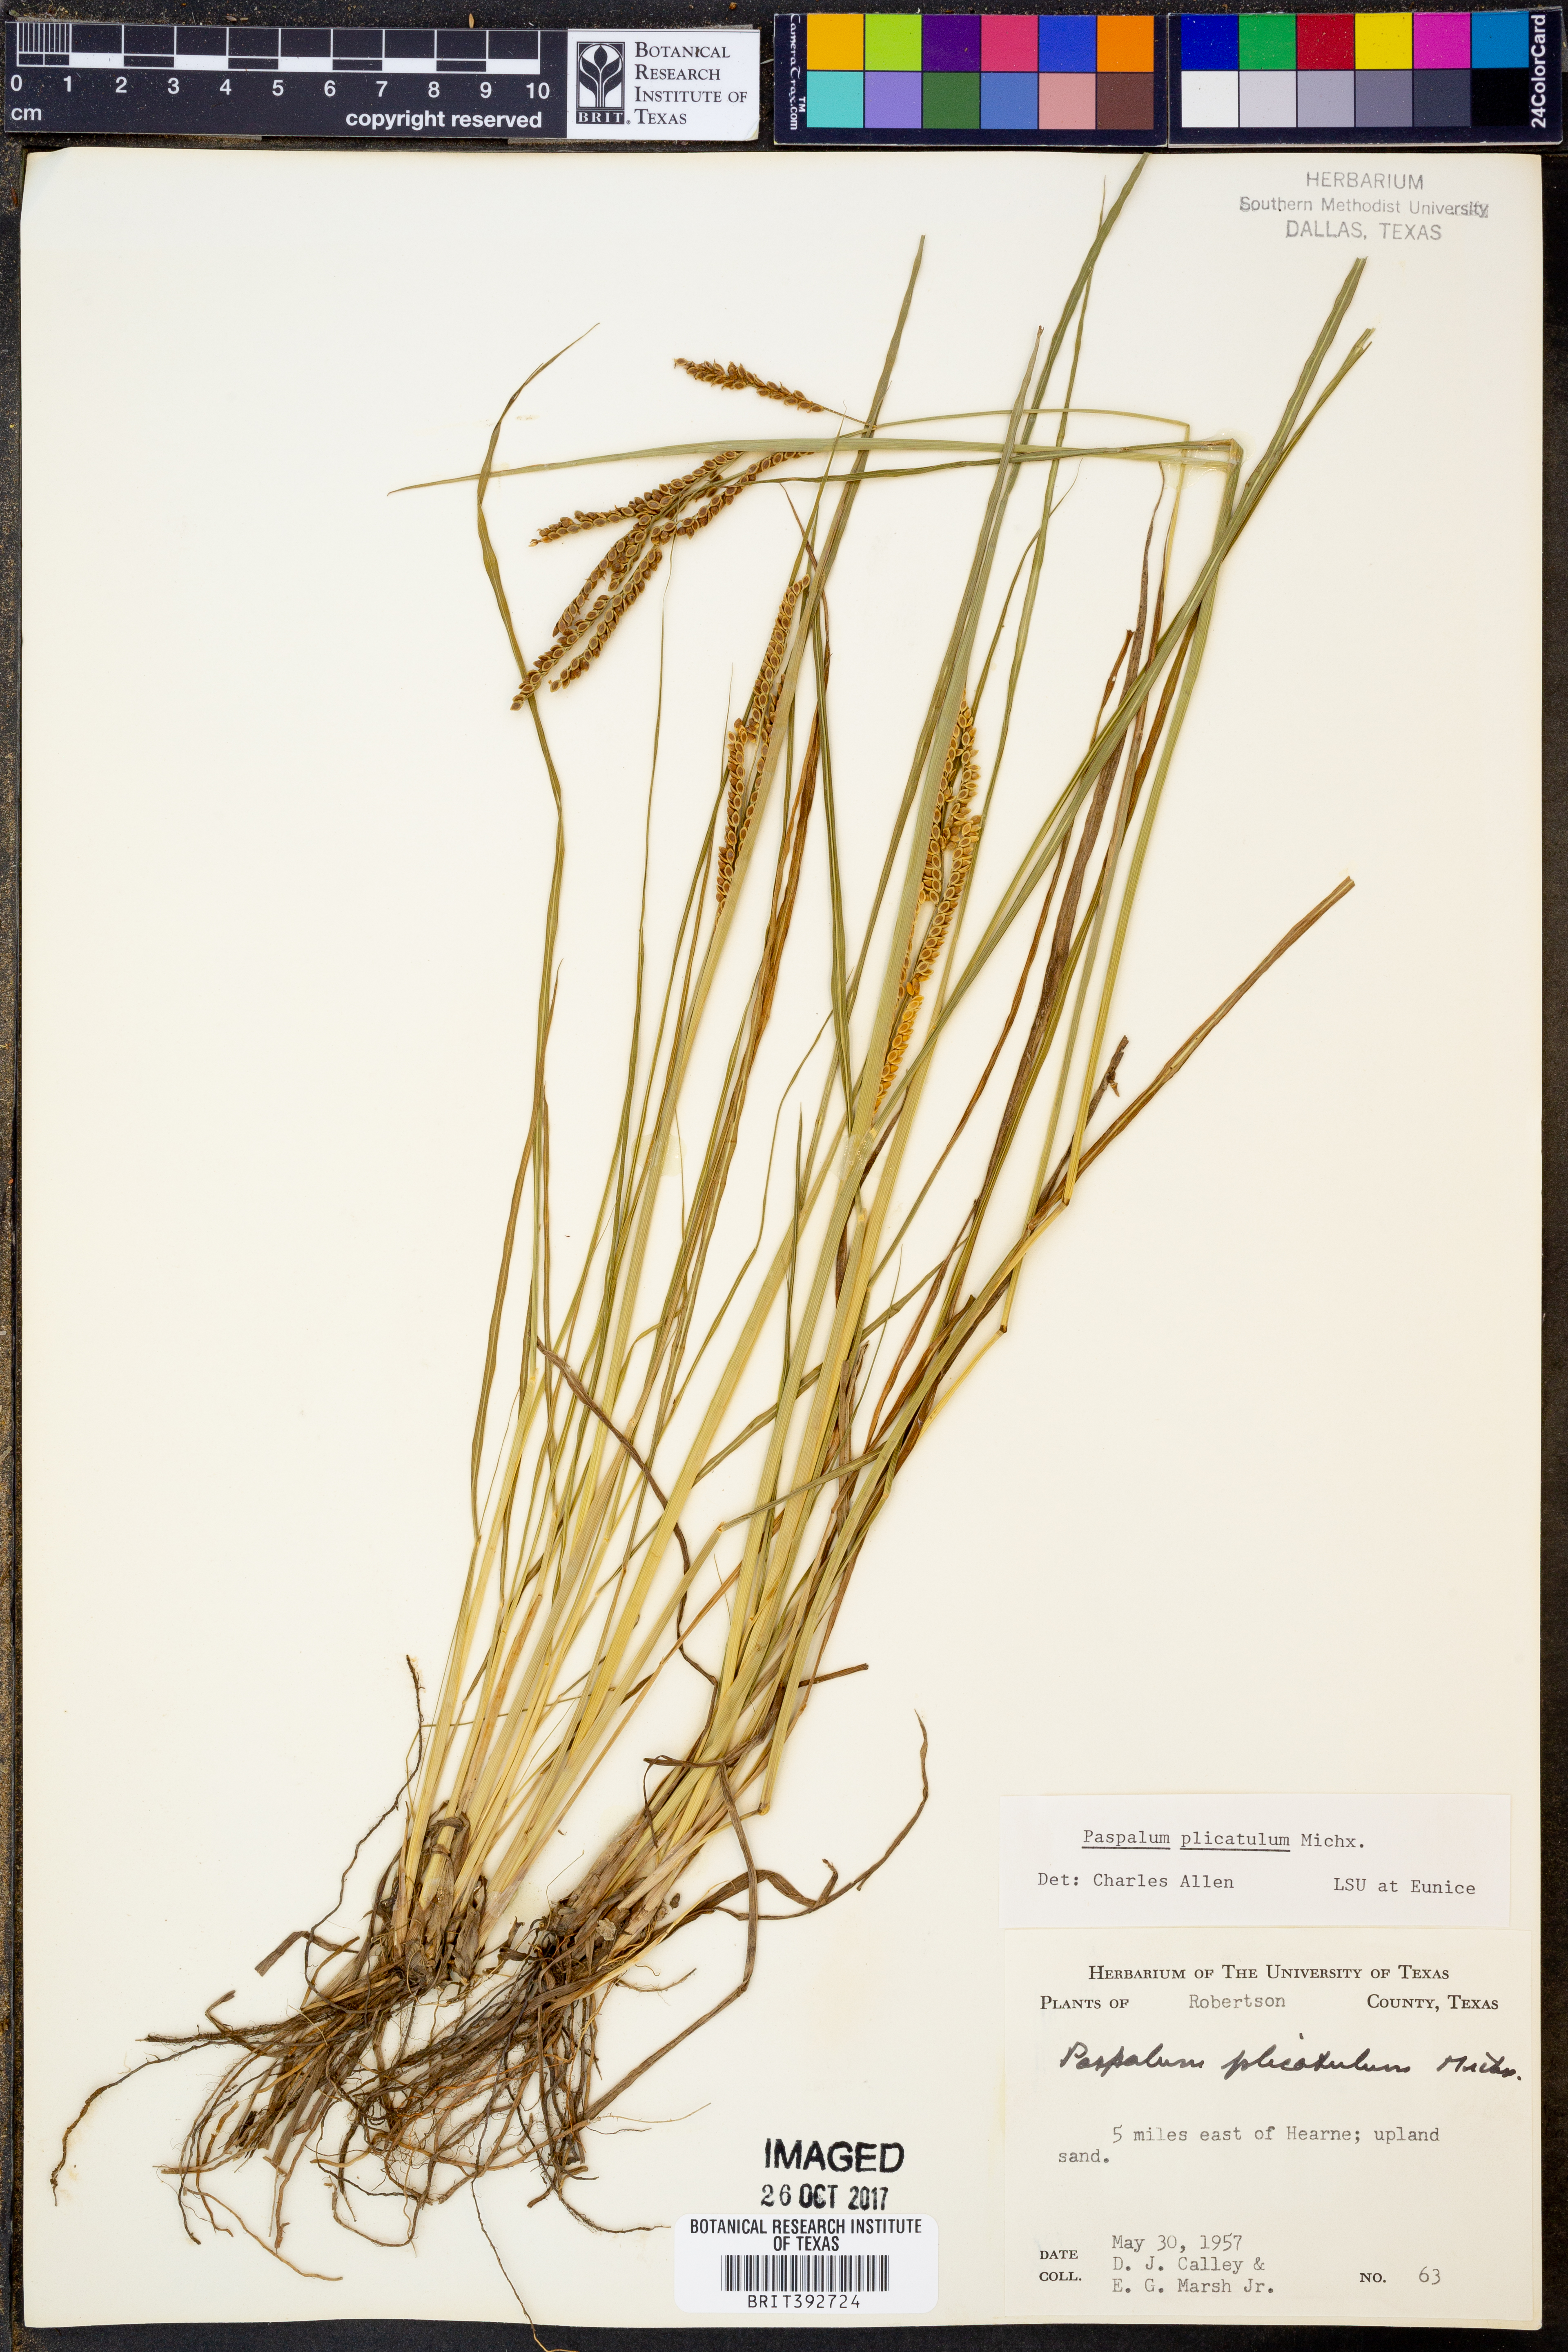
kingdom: Plantae
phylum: Tracheophyta
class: Liliopsida
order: Poales
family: Poaceae
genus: Paspalum
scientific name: Paspalum plicatulum
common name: Top paspalum
